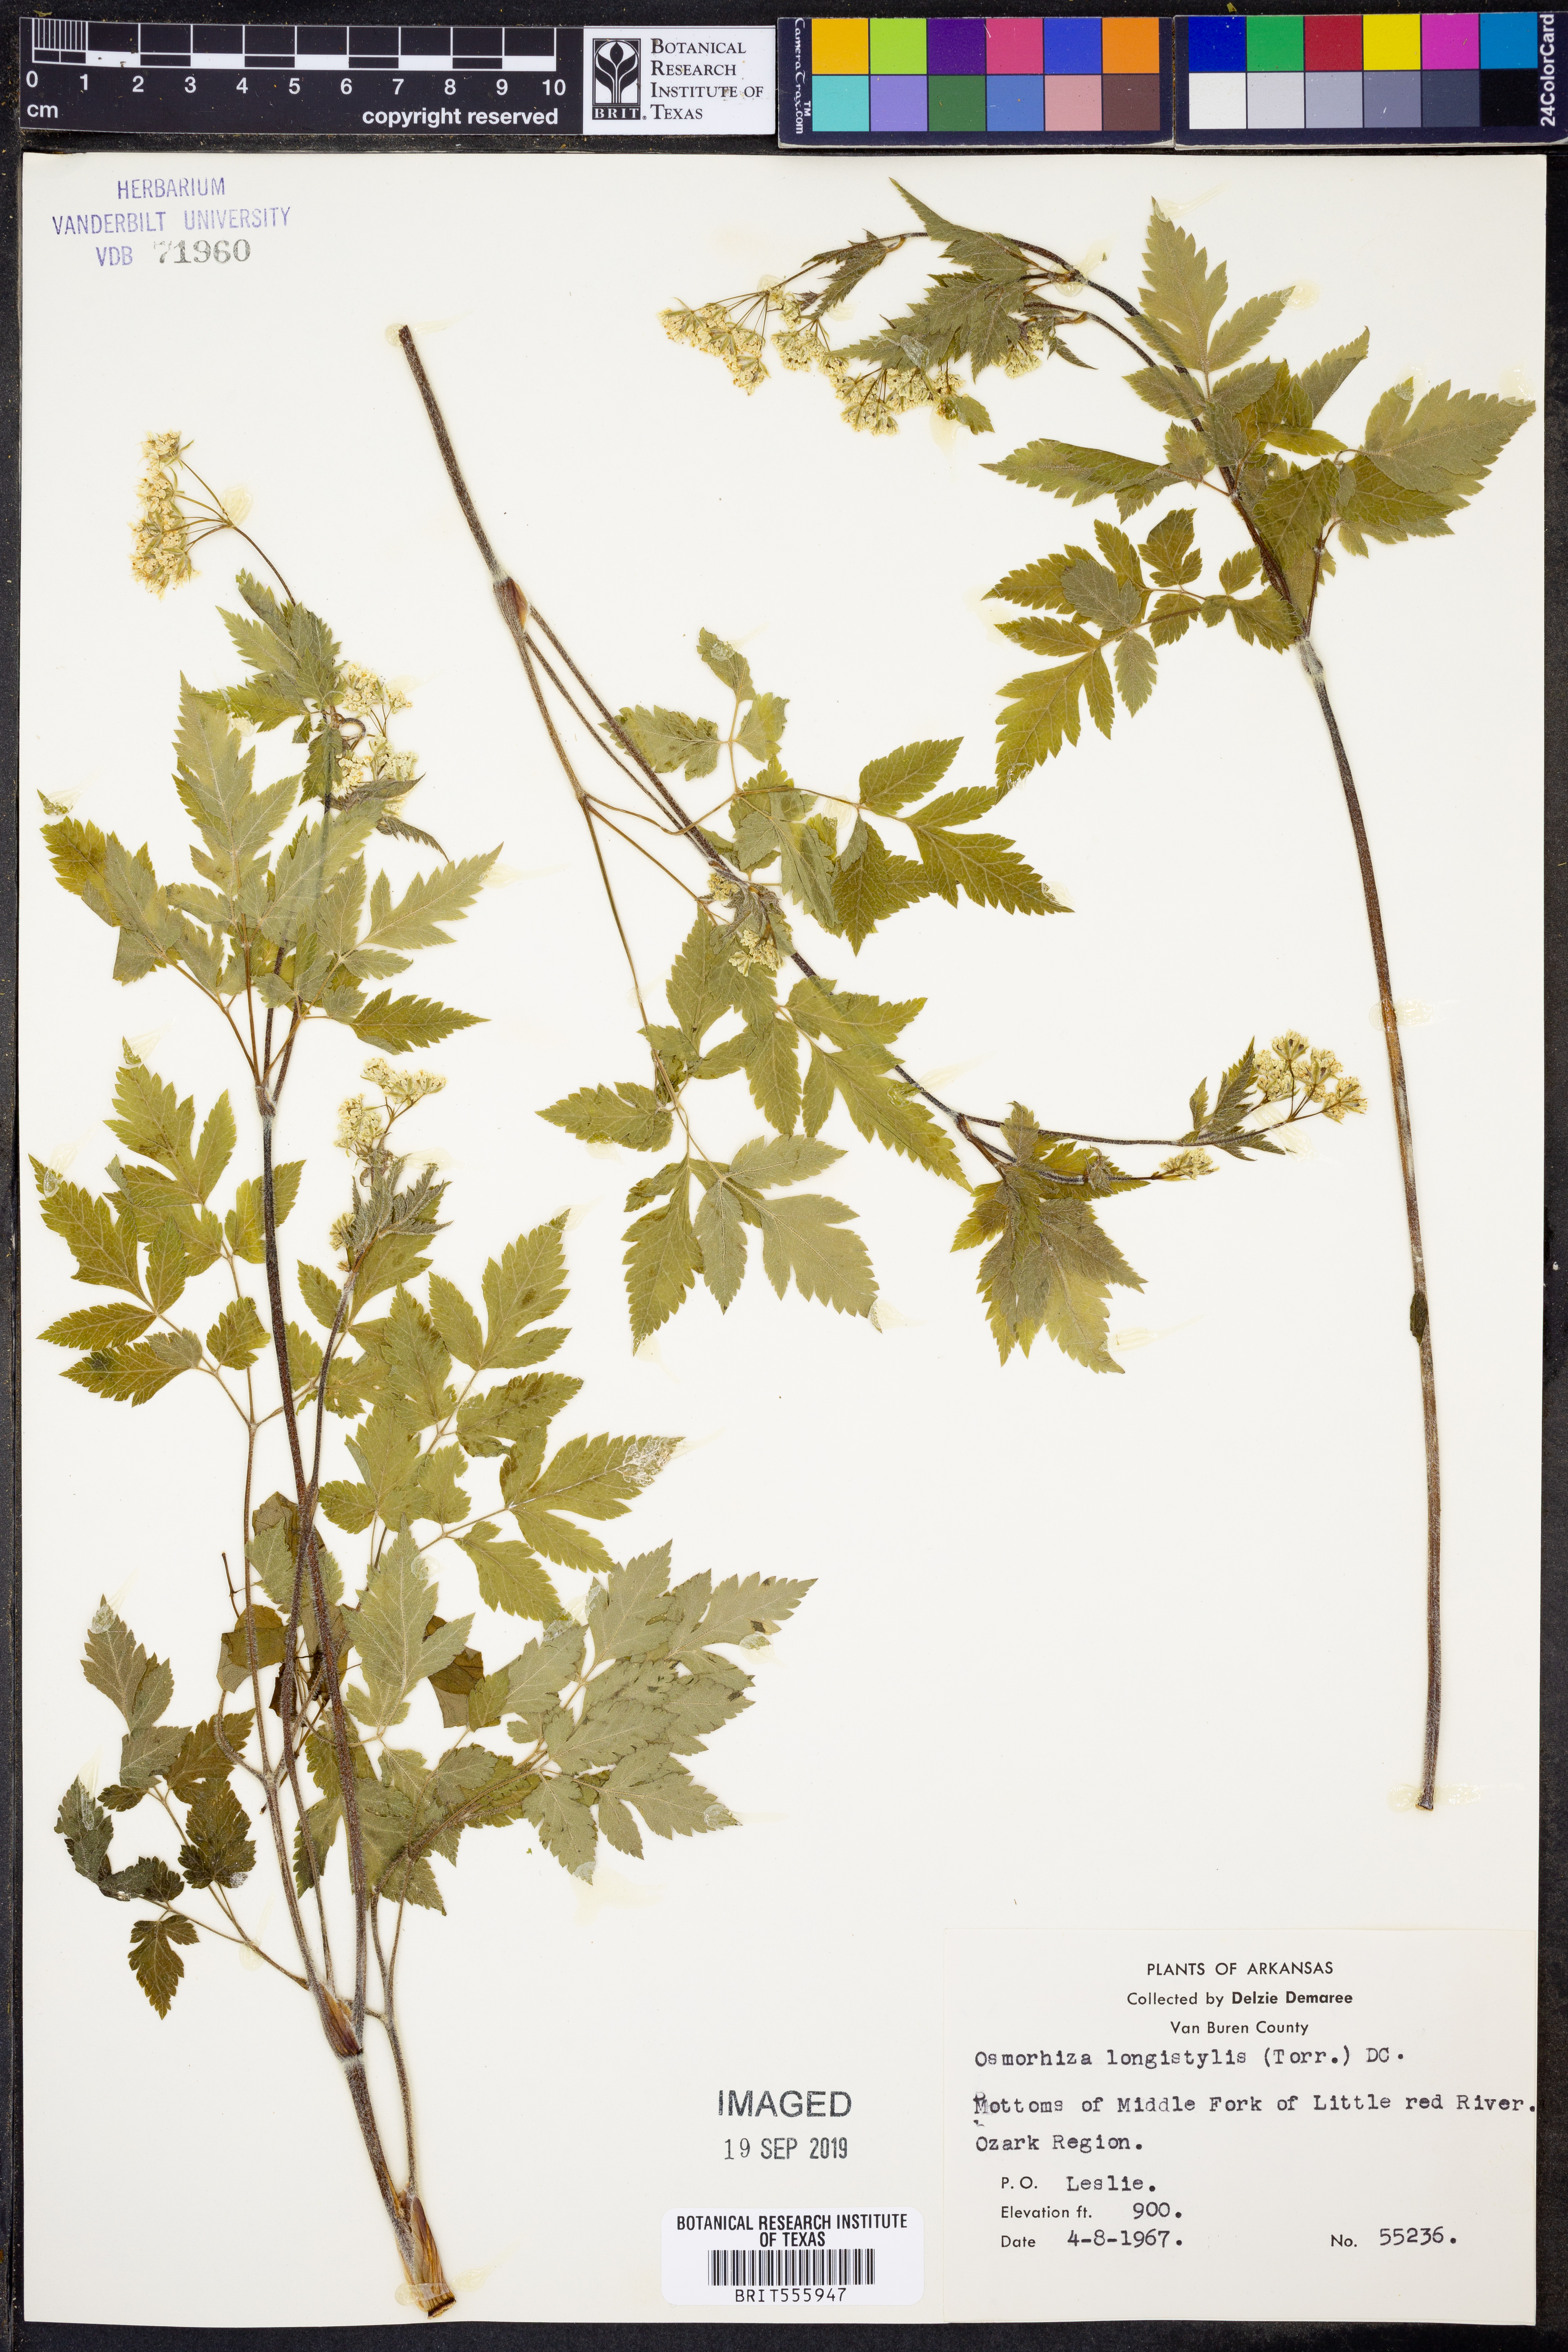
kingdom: Plantae
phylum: Tracheophyta
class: Magnoliopsida
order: Apiales
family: Apiaceae
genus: Osmorhiza
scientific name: Osmorhiza longistylis
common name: Smooth sweet cicely
